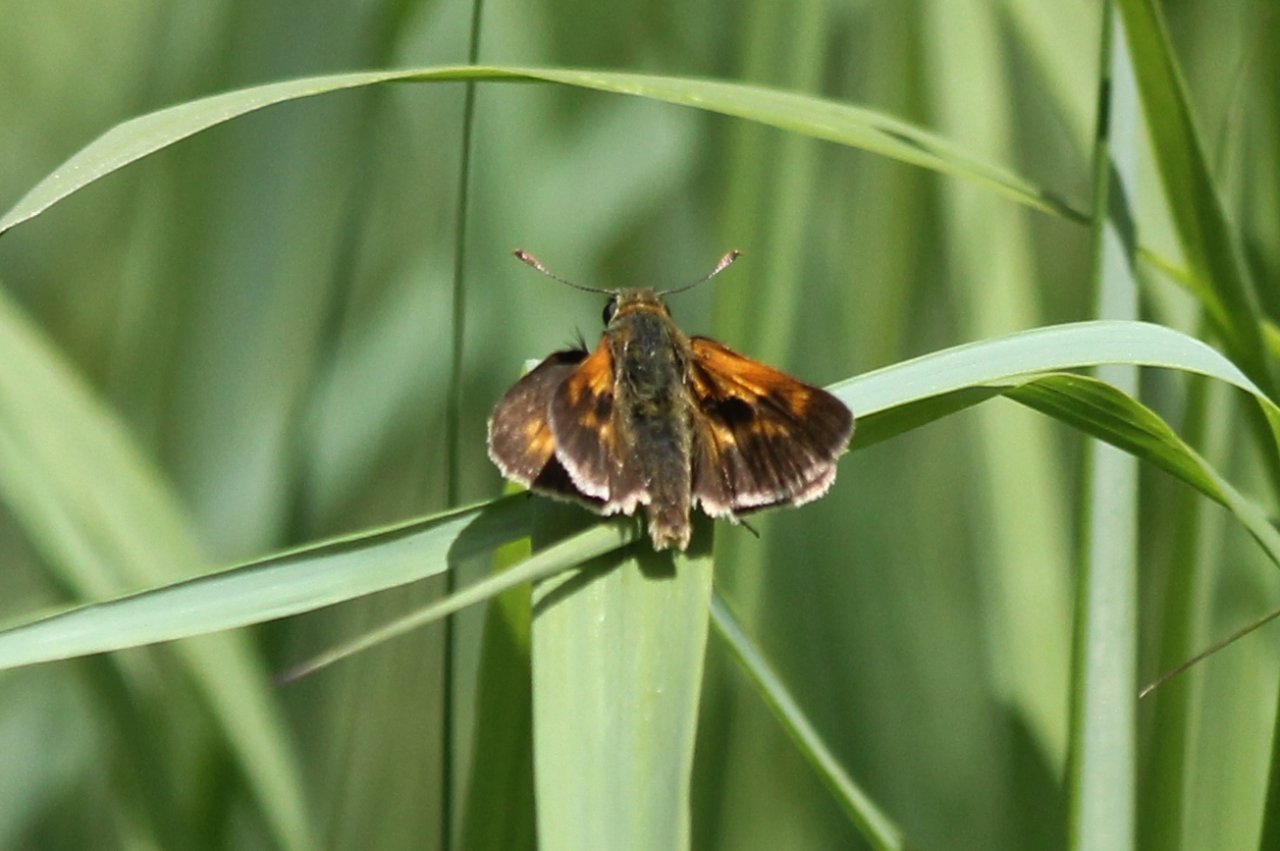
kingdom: Animalia
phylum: Arthropoda
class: Insecta
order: Lepidoptera
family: Hesperiidae
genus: Polites
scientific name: Polites
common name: Long Dash Skipper
